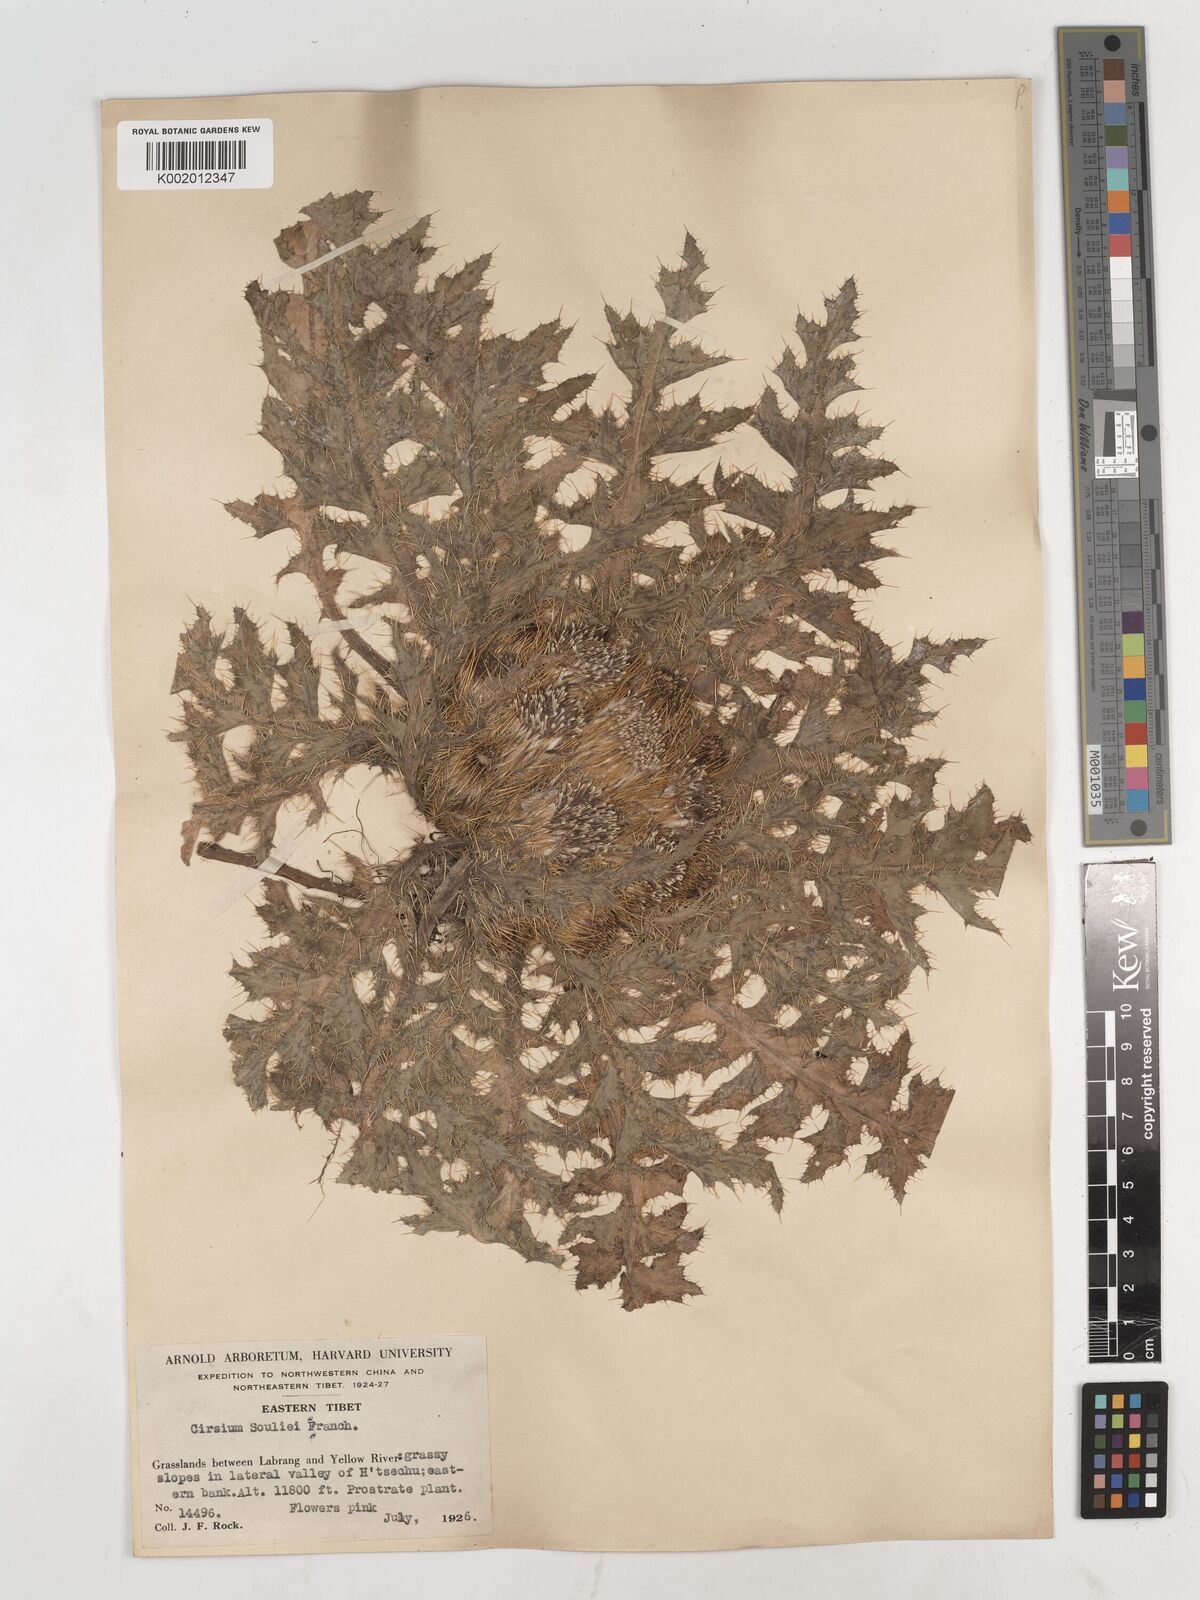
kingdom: Plantae
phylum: Tracheophyta
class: Magnoliopsida
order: Asterales
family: Asteraceae
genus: Cirsium
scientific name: Cirsium souliei
